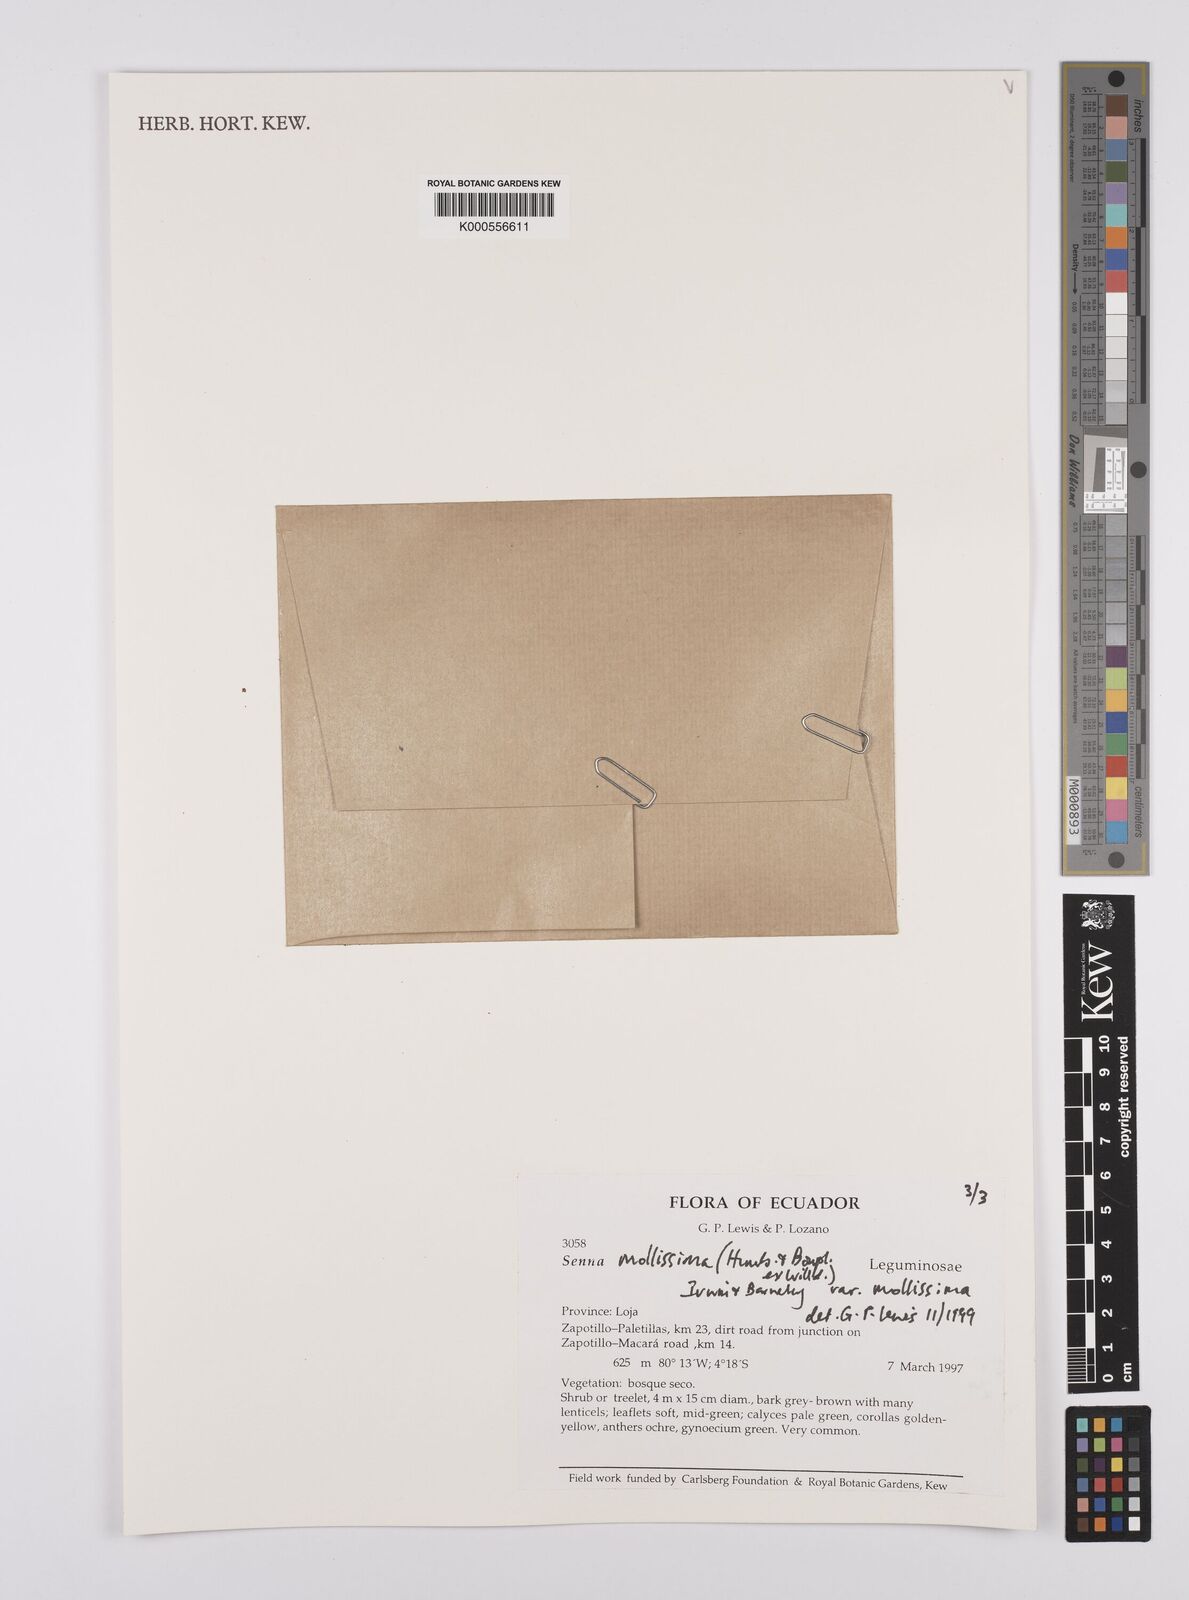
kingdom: Plantae
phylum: Tracheophyta
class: Magnoliopsida
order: Fabales
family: Fabaceae
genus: Senna
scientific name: Senna mollissima
